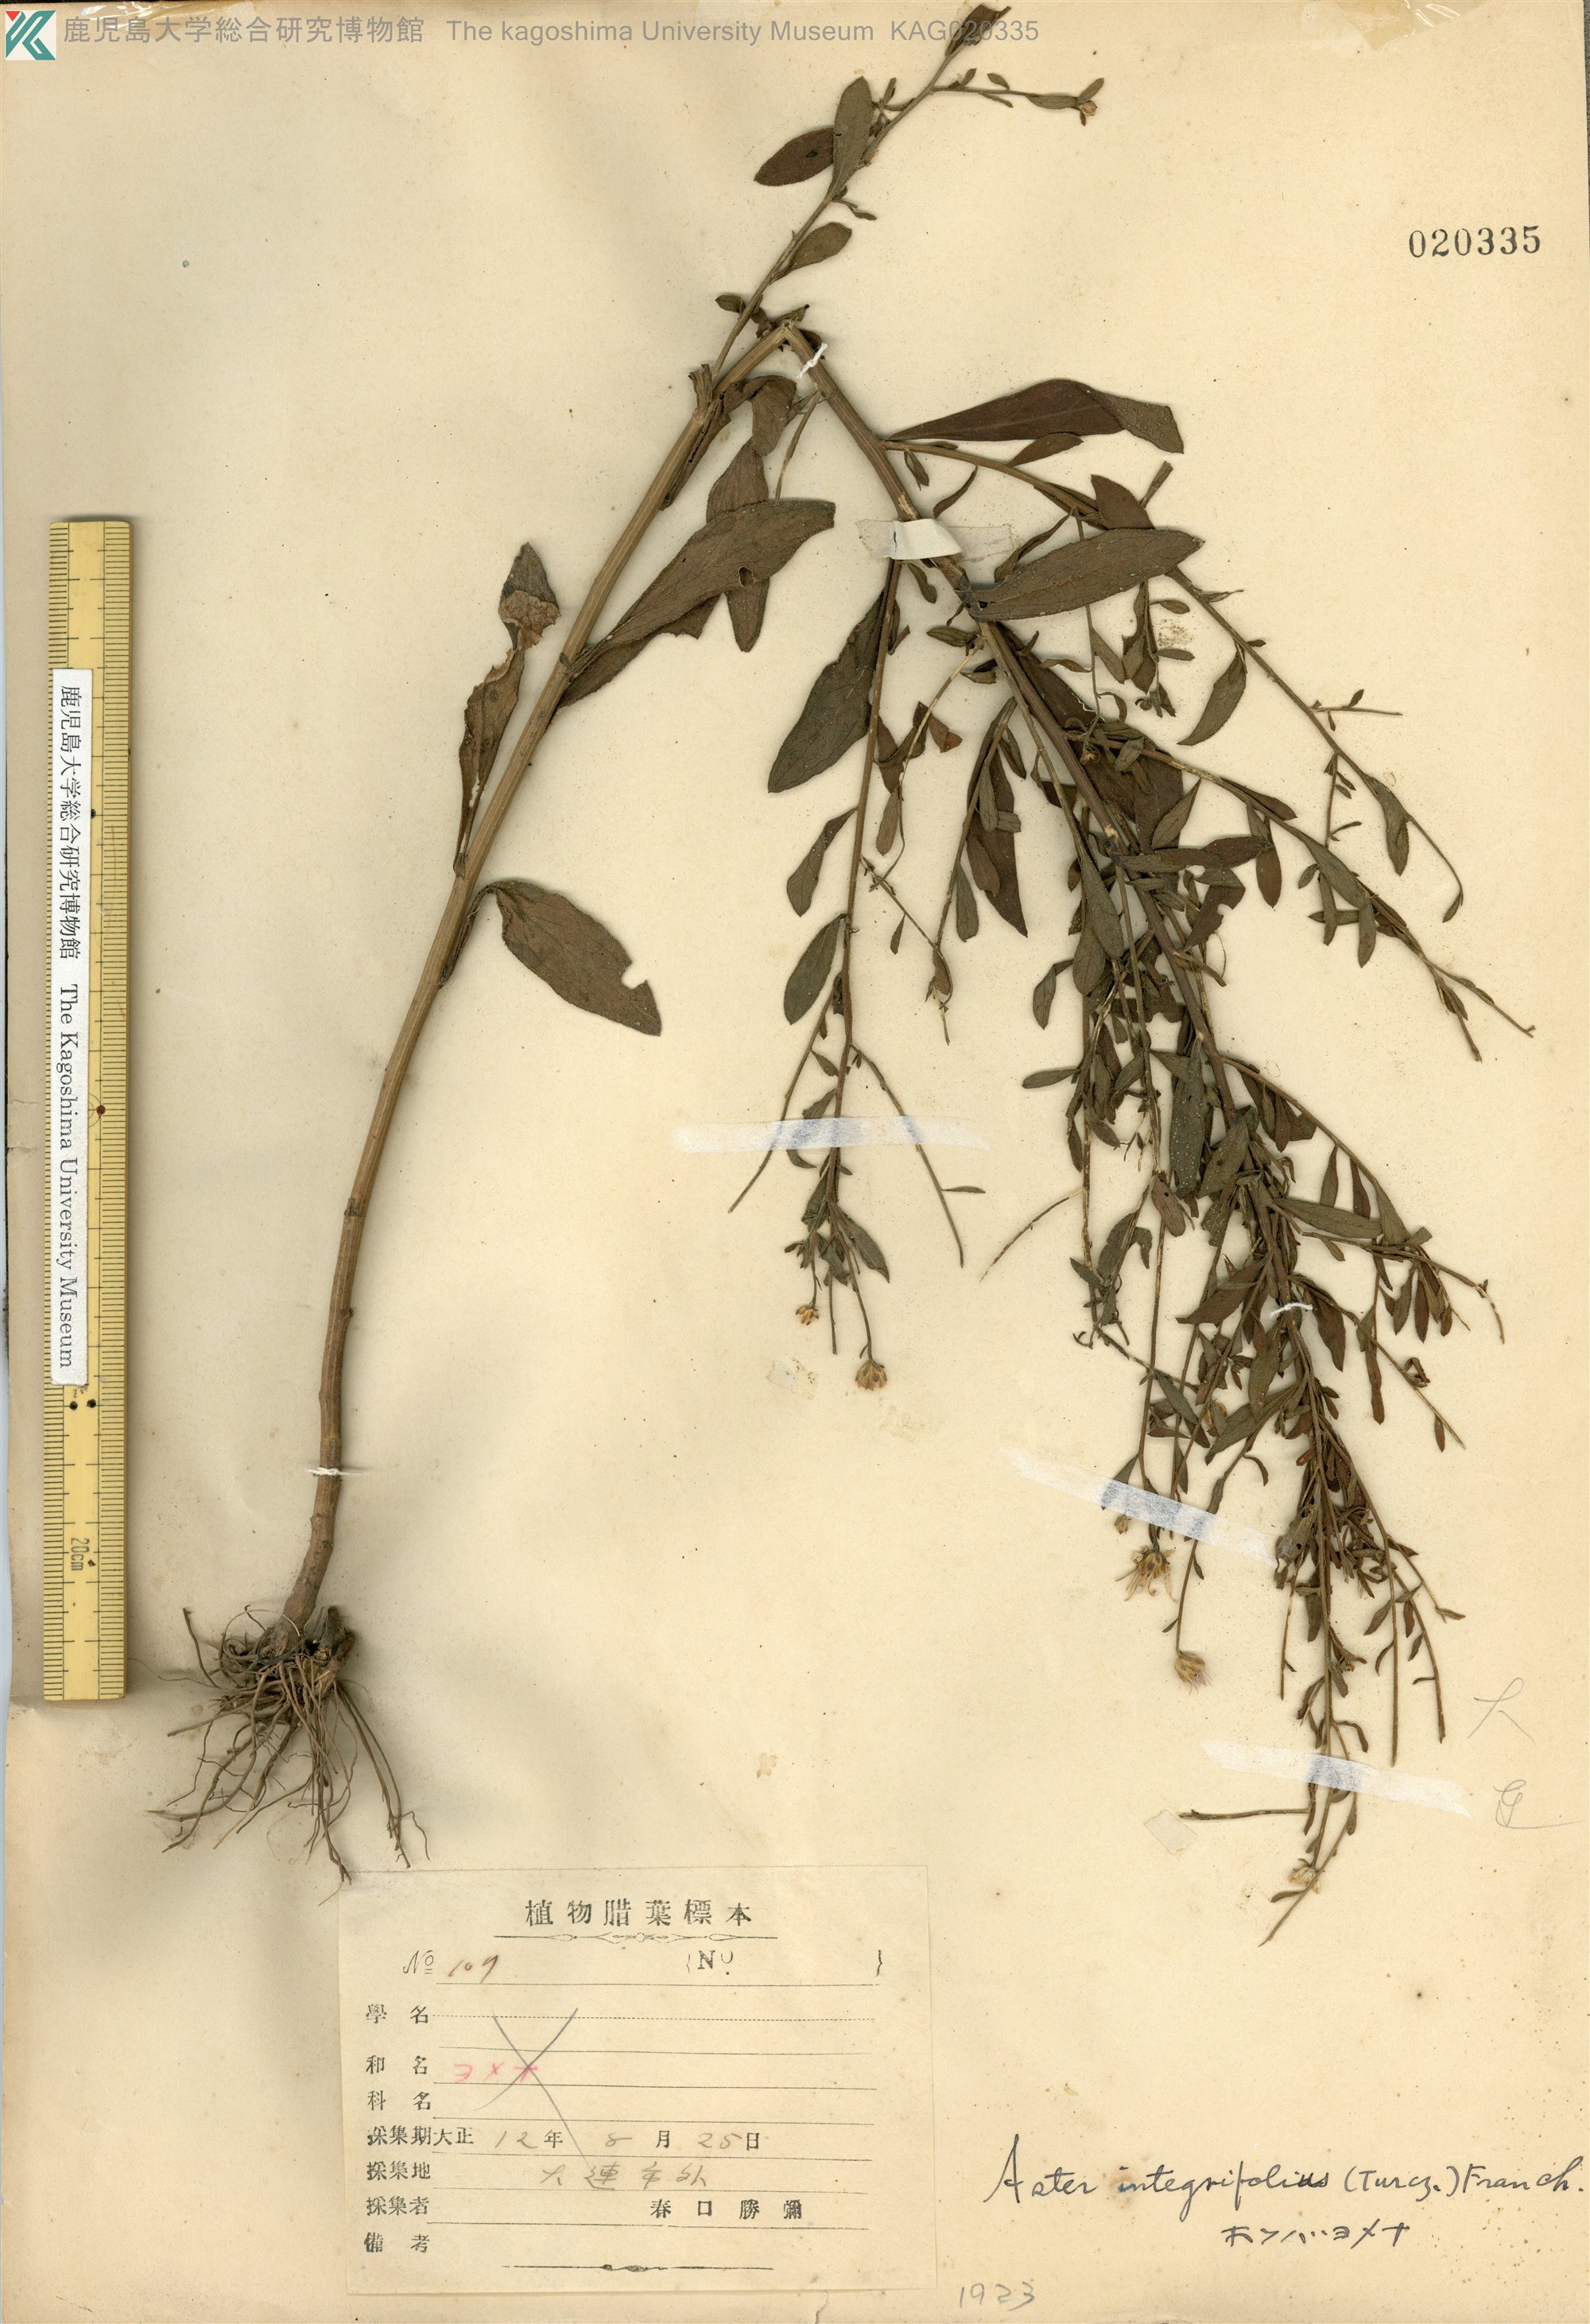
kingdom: Plantae
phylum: Tracheophyta
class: Magnoliopsida
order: Asterales
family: Asteraceae
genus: Kalimeris
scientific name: Kalimeris integrifolia
